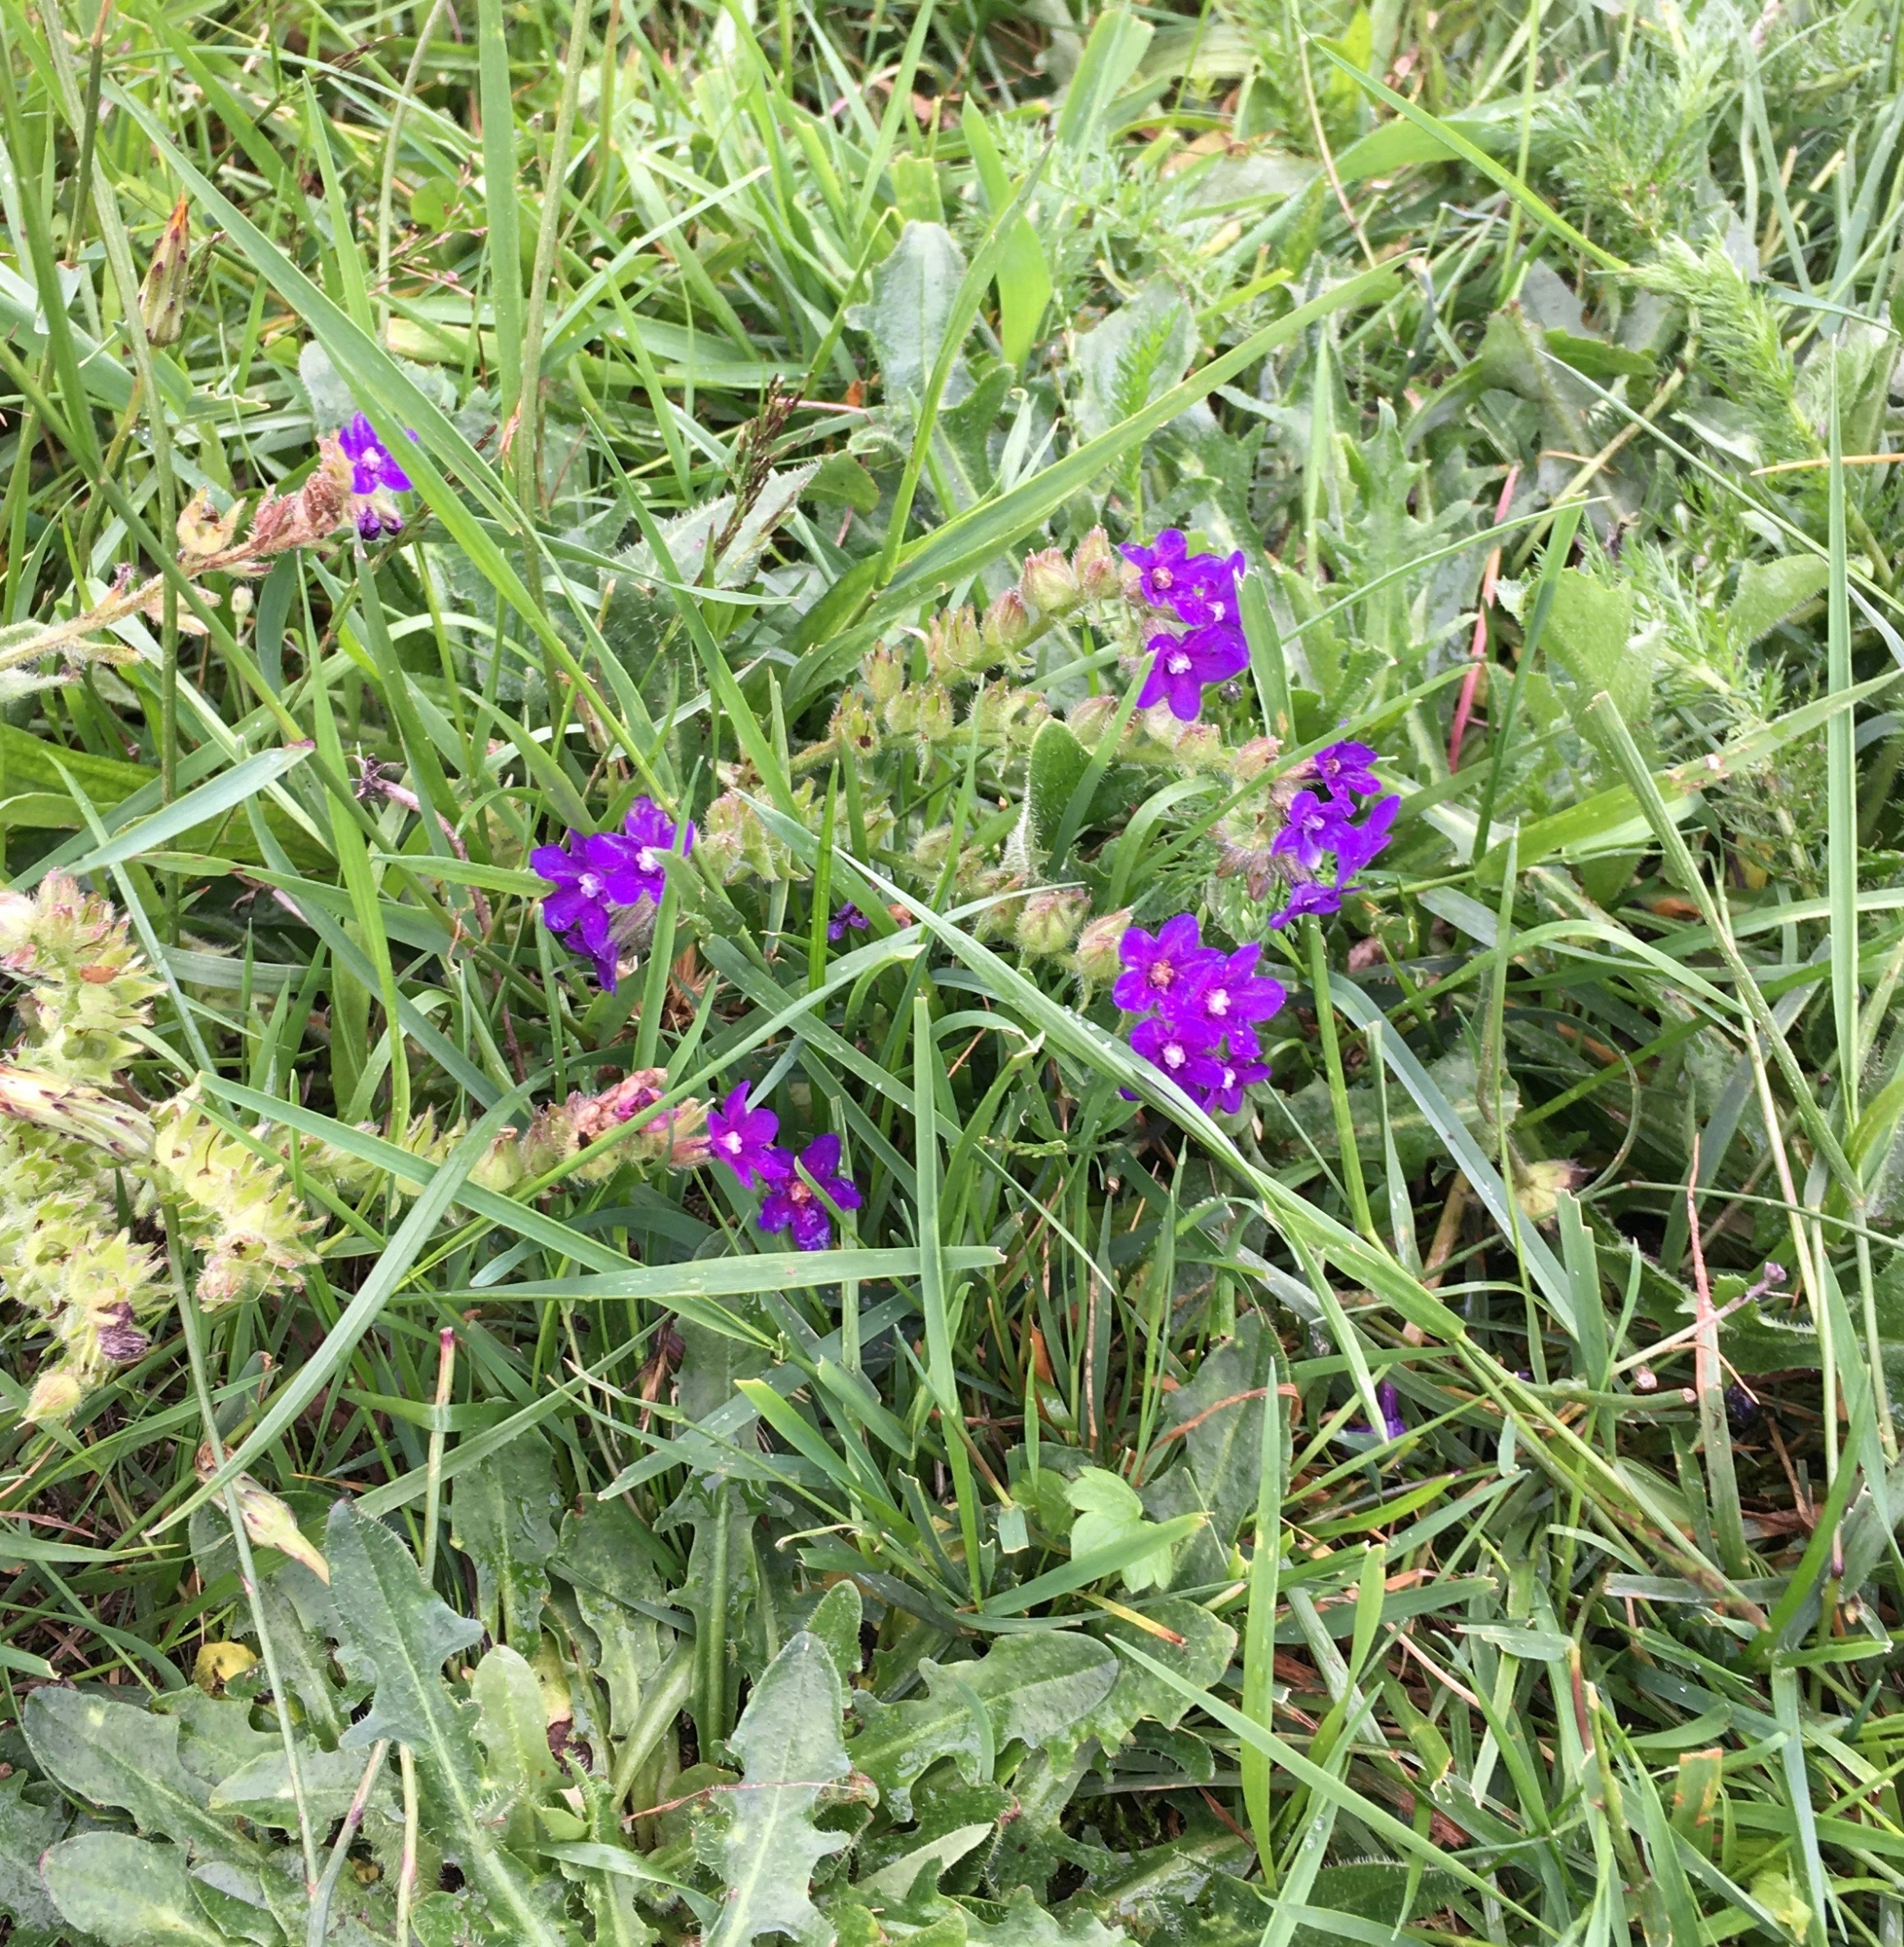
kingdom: Plantae
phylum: Tracheophyta
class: Magnoliopsida
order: Boraginales
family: Boraginaceae
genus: Anchusa
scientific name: Anchusa officinalis
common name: Læge-oksetunge
